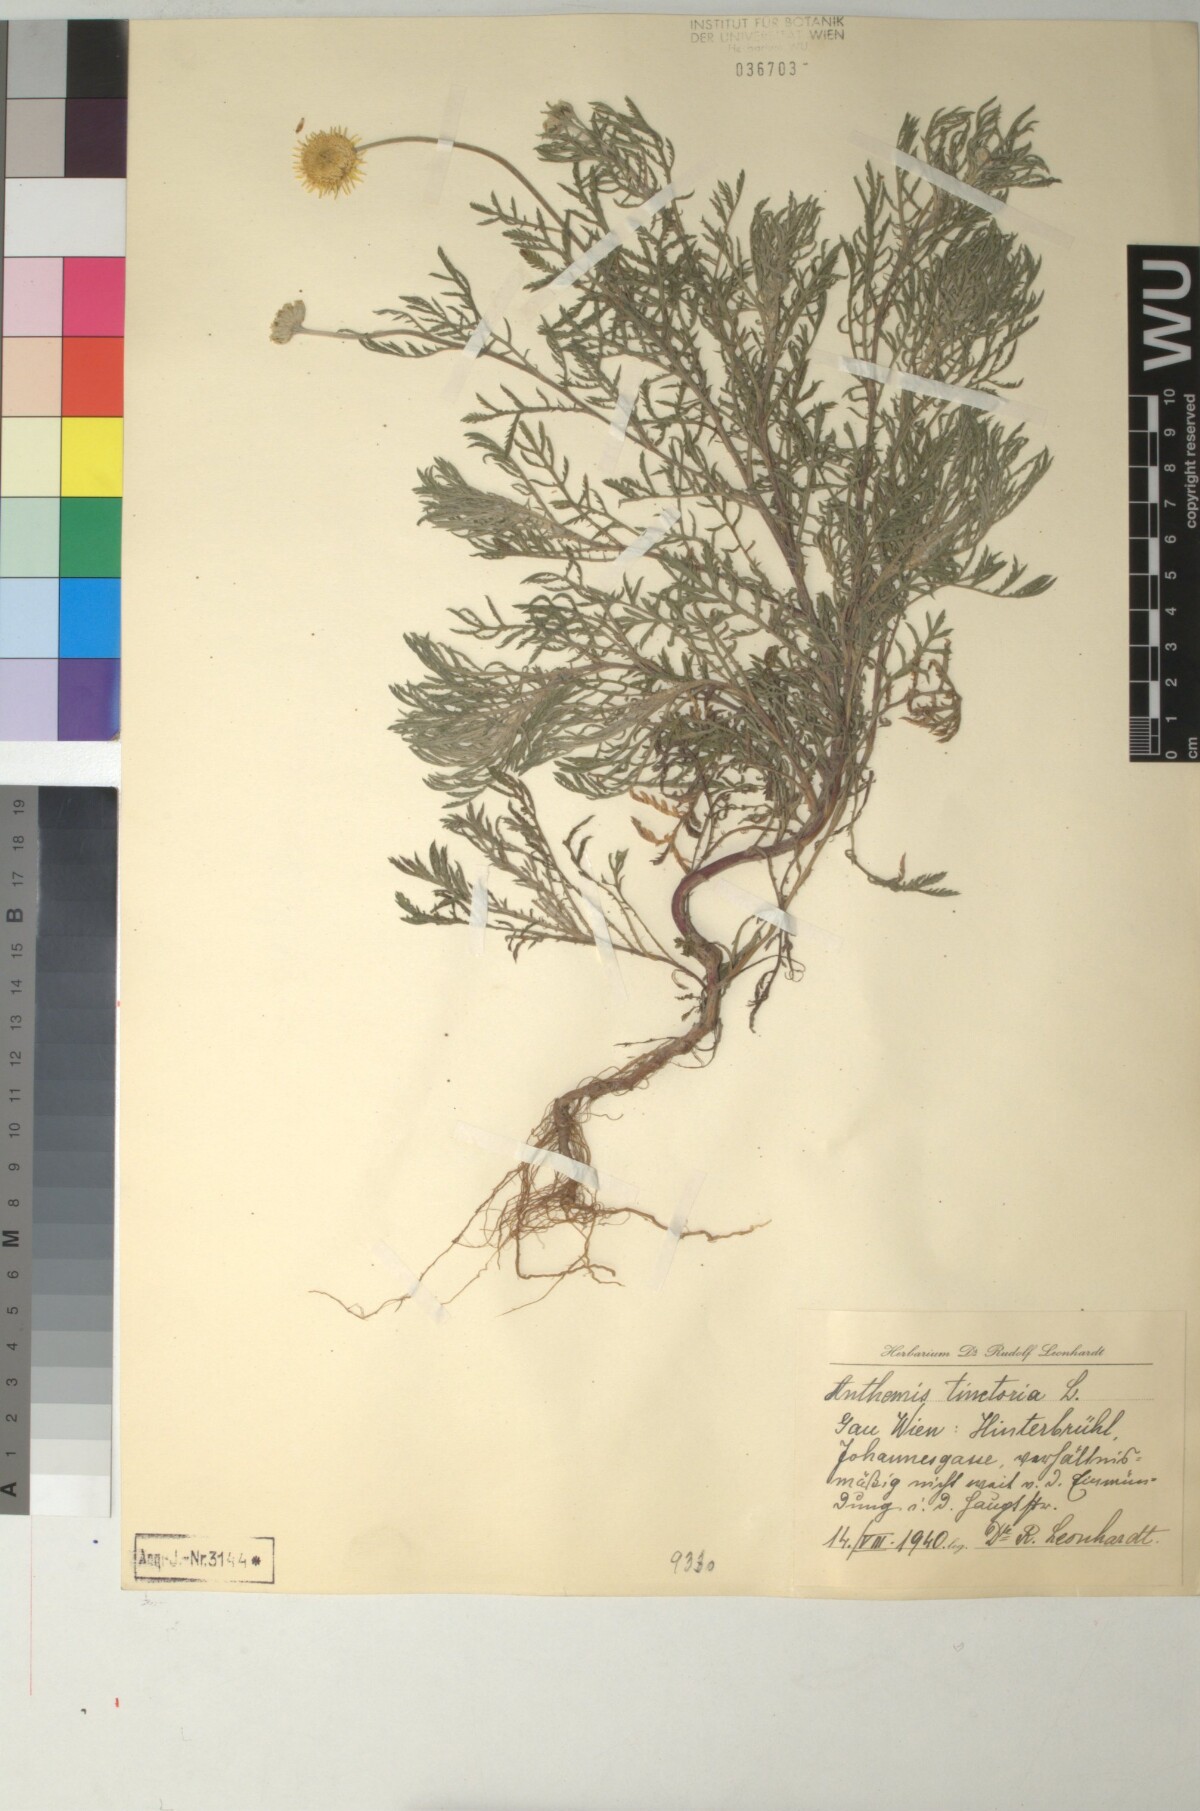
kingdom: Plantae
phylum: Tracheophyta
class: Magnoliopsida
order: Asterales
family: Asteraceae
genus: Cota
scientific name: Cota tinctoria
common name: Golden chamomile
